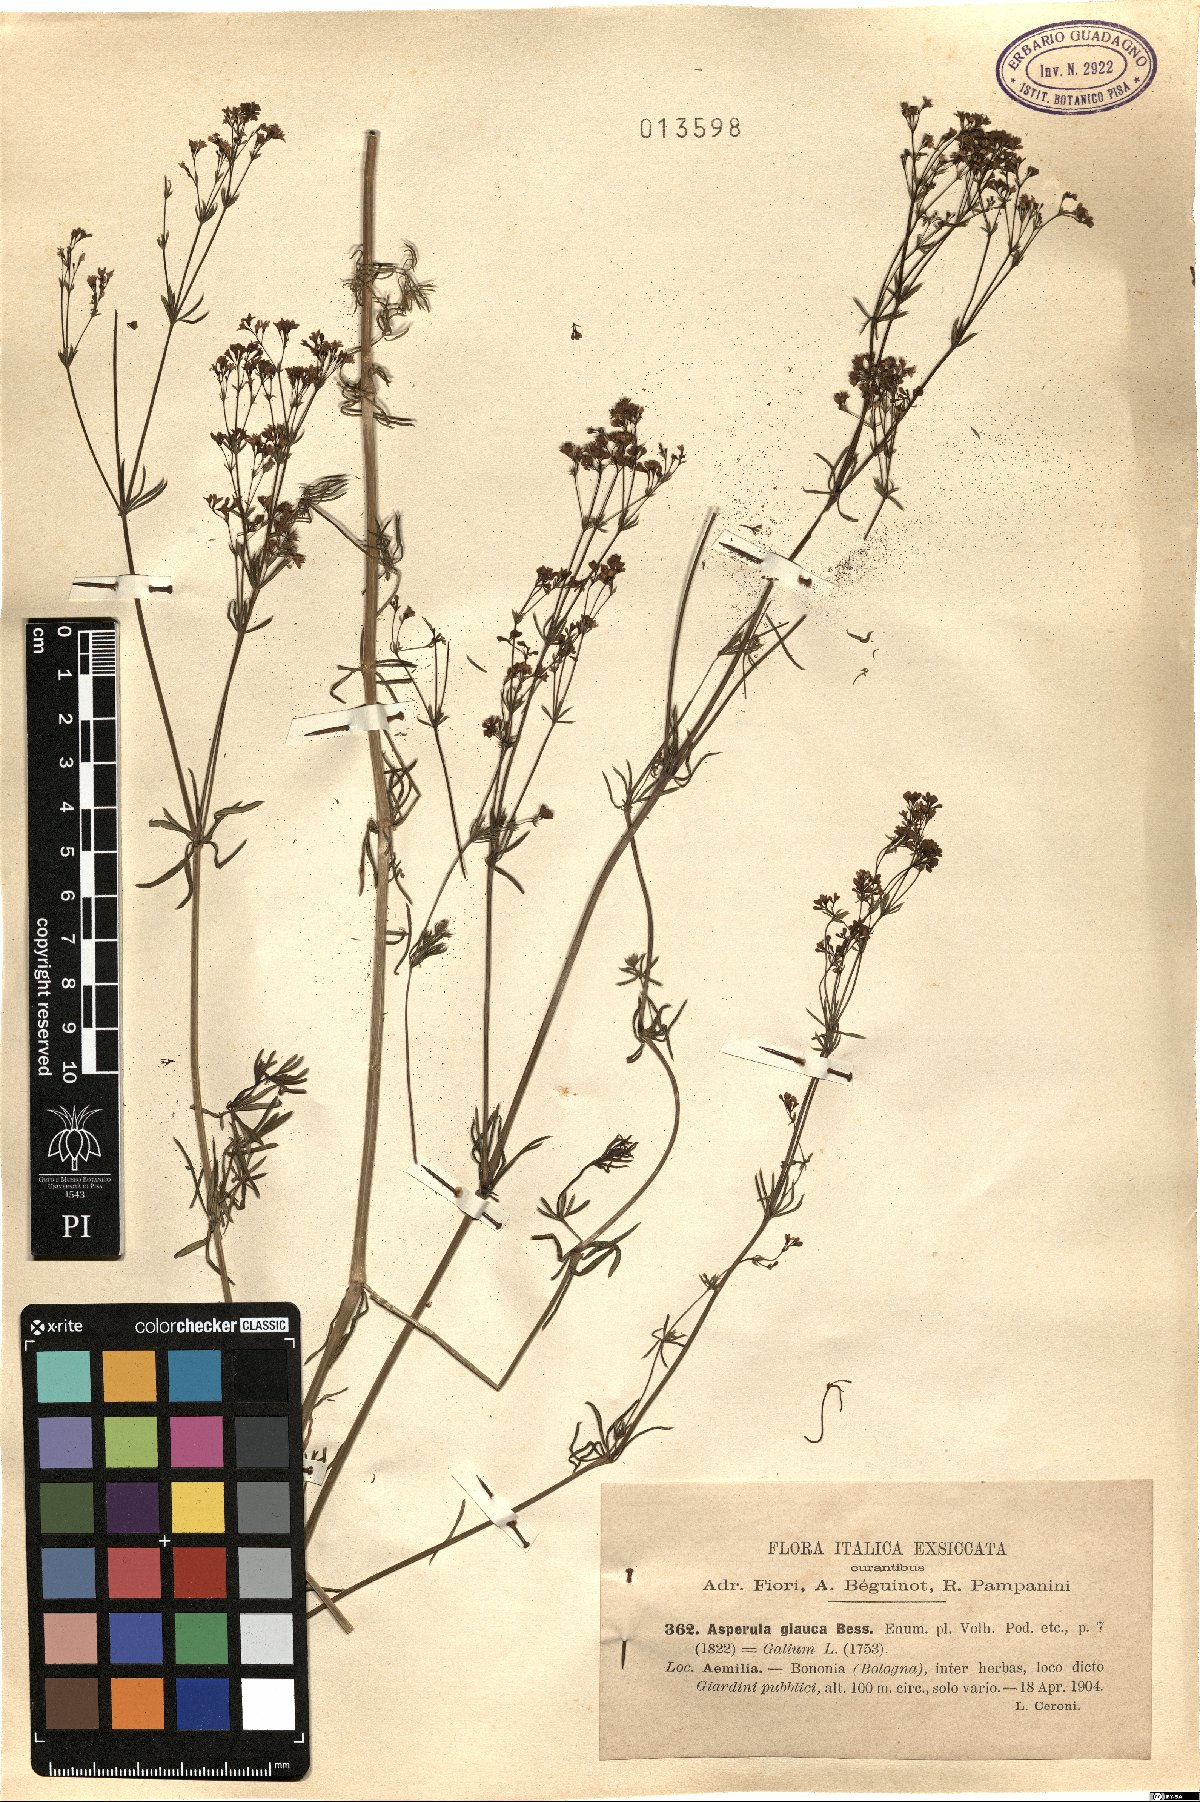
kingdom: Plantae
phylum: Tracheophyta
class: Magnoliopsida
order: Gentianales
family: Rubiaceae
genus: Galium
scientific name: Galium glaucum
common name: Waxy bedstraw
